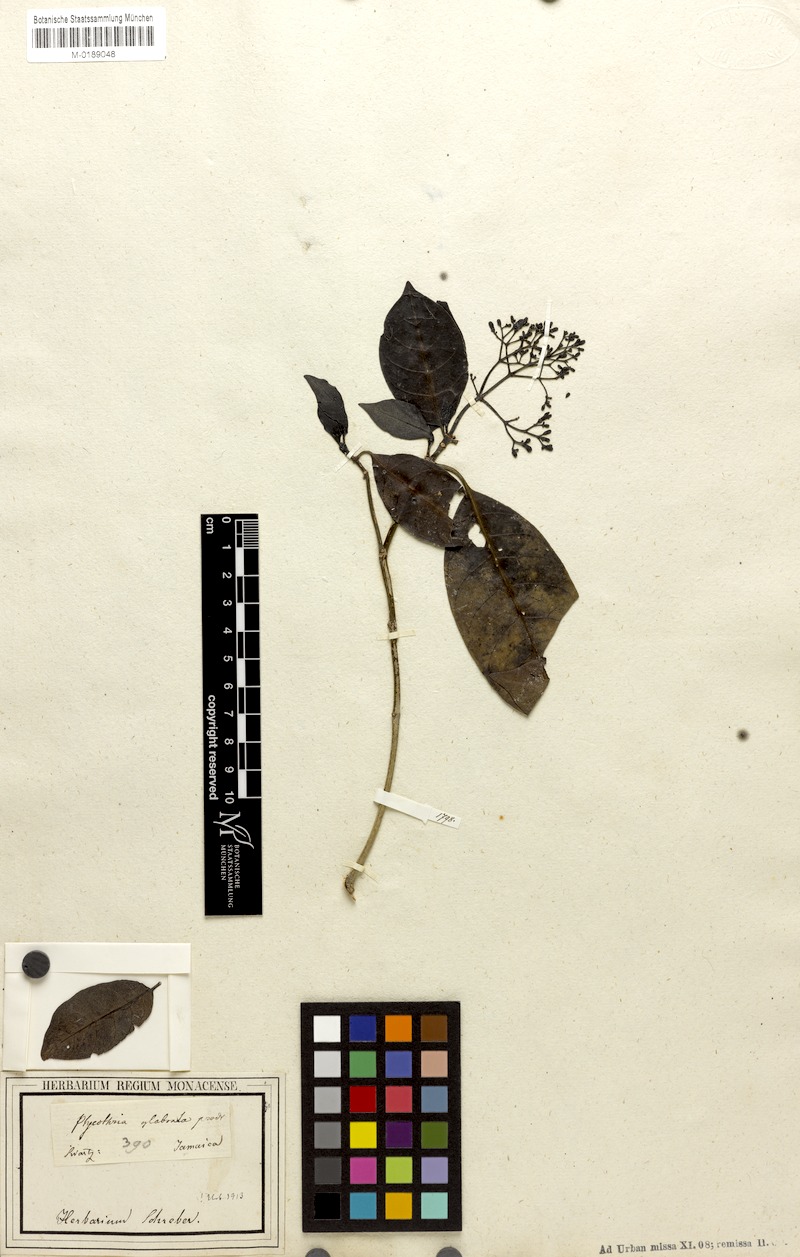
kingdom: Plantae
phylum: Tracheophyta
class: Magnoliopsida
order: Gentianales
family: Rubiaceae
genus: Psychotria
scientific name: Psychotria glabrata
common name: Browne's wild coffee
